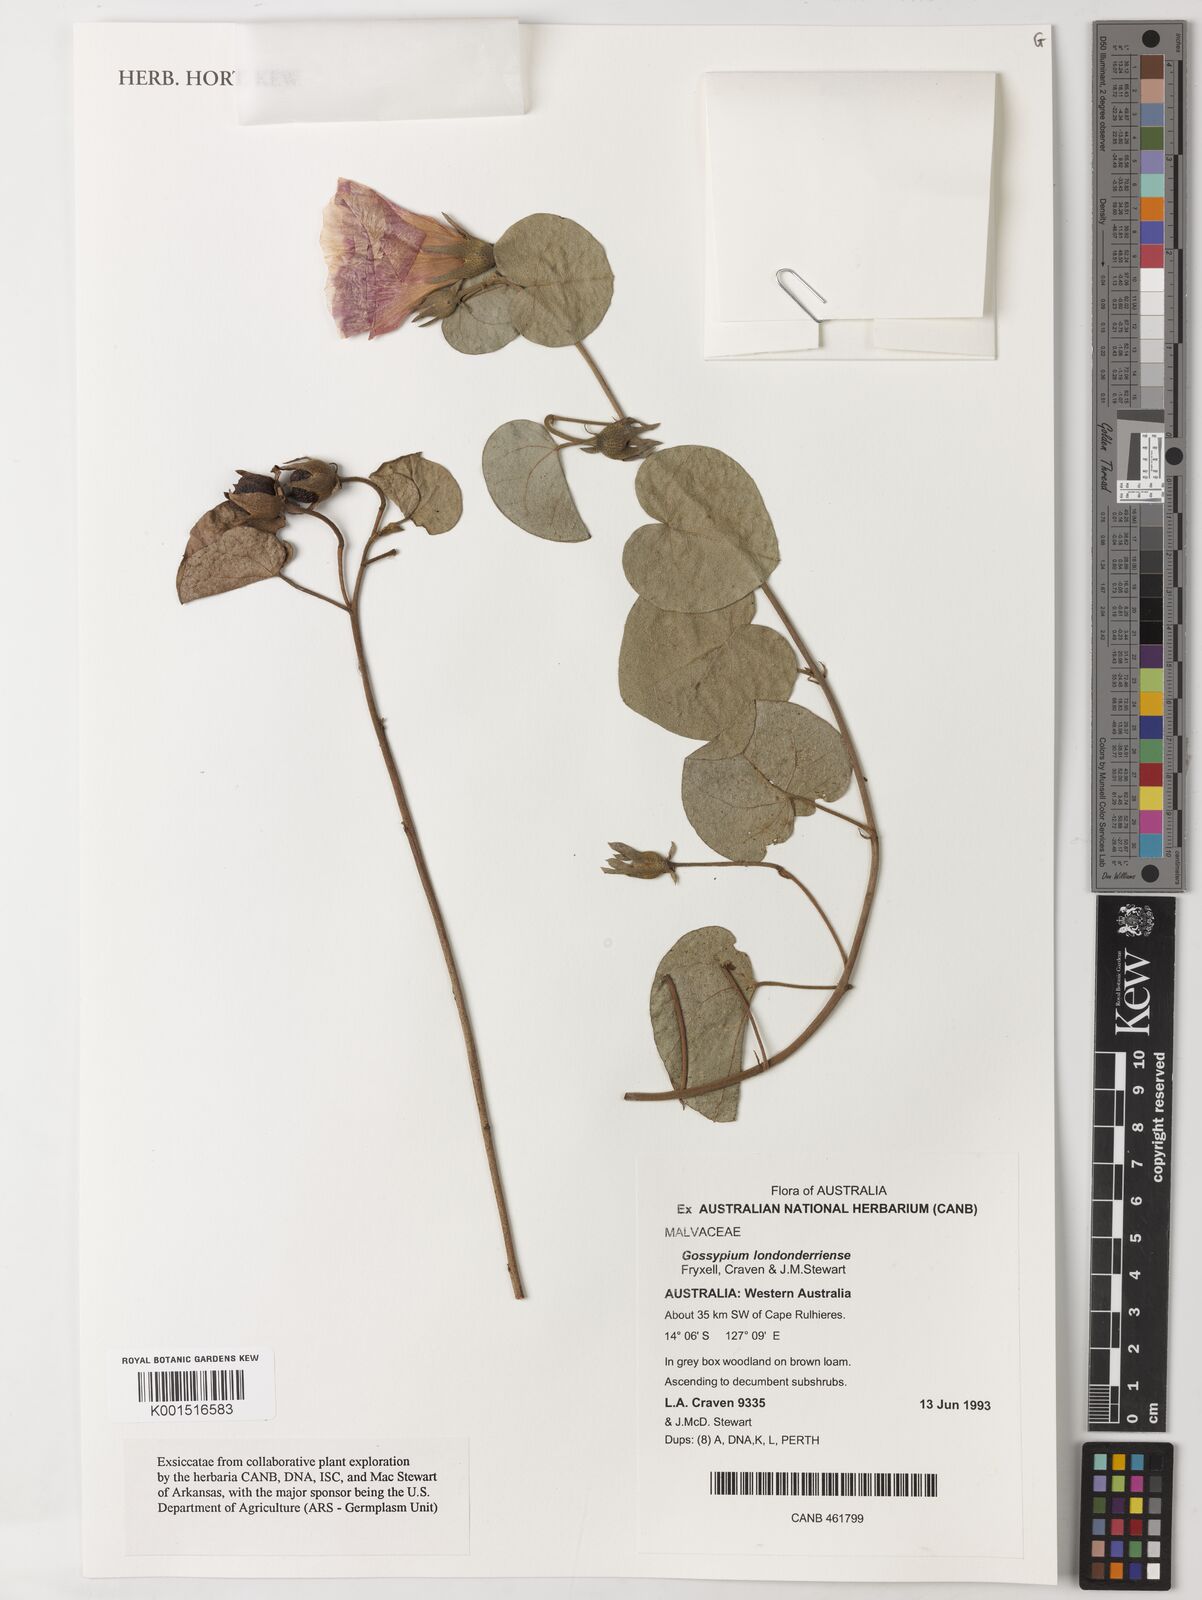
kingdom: Plantae
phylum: Tracheophyta
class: Magnoliopsida
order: Malvales
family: Malvaceae
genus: Gossypium
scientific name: Gossypium londonderriense
